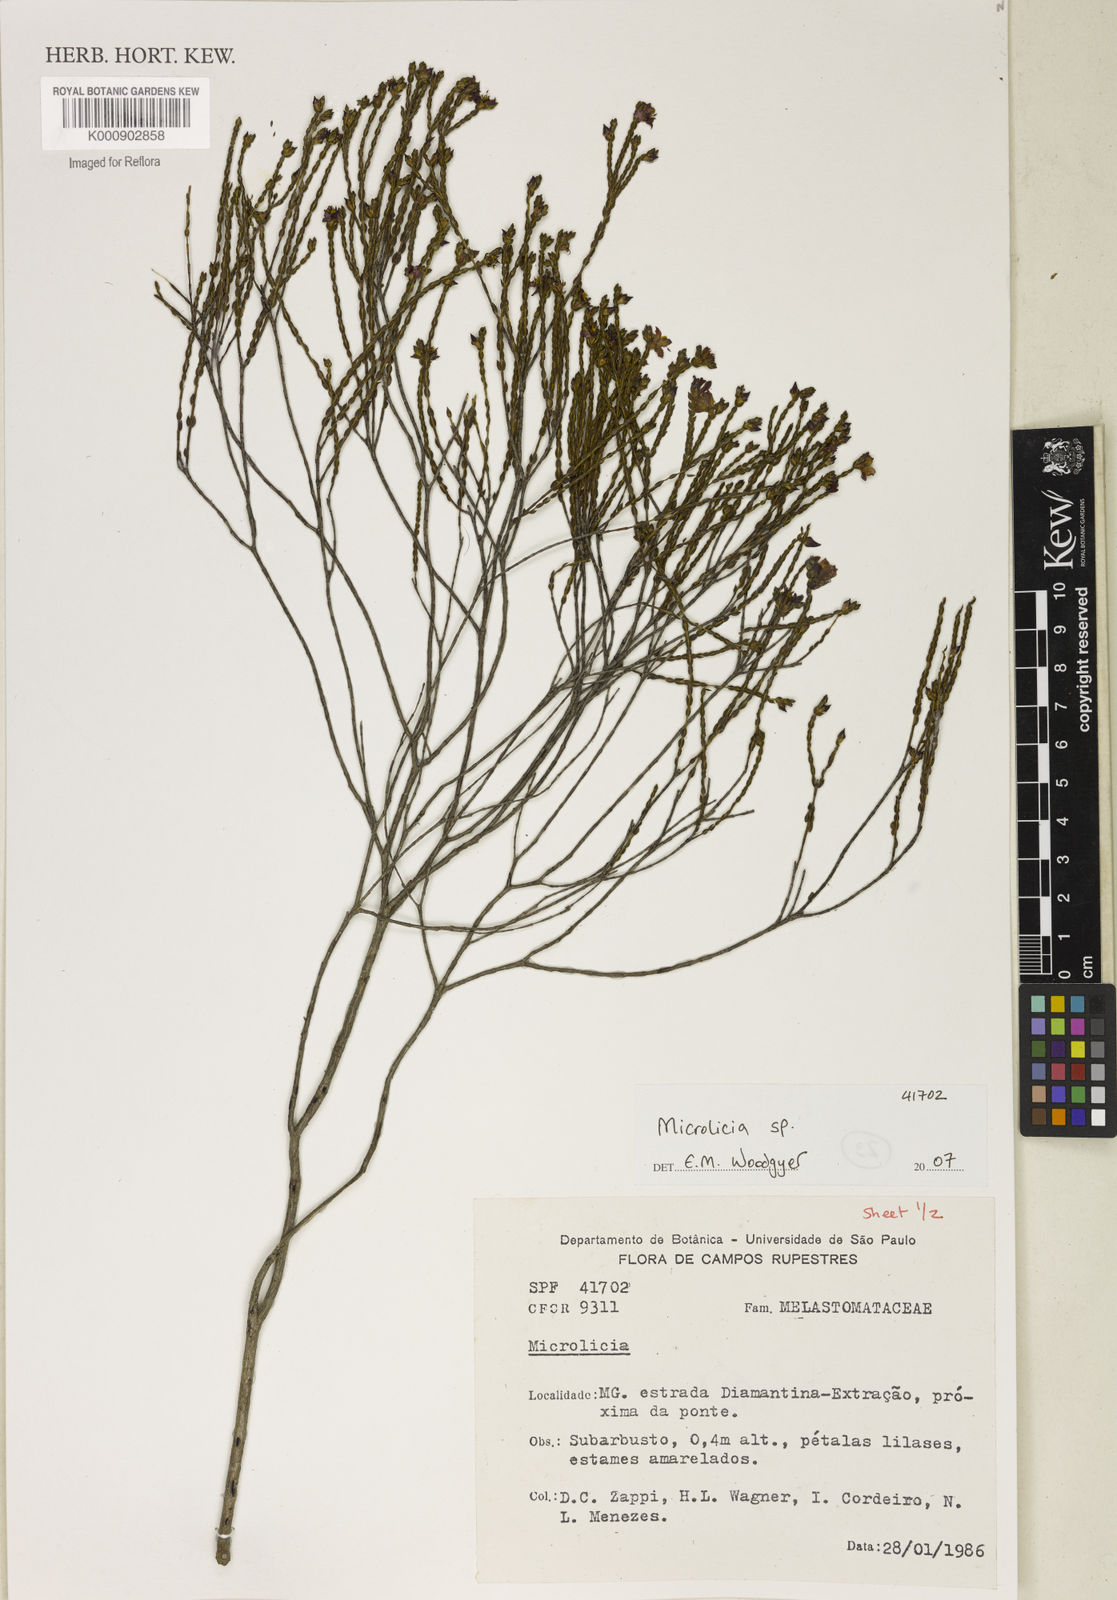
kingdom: Plantae
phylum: Tracheophyta
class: Magnoliopsida
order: Myrtales
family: Melastomataceae
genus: Microlicia
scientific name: Microlicia
